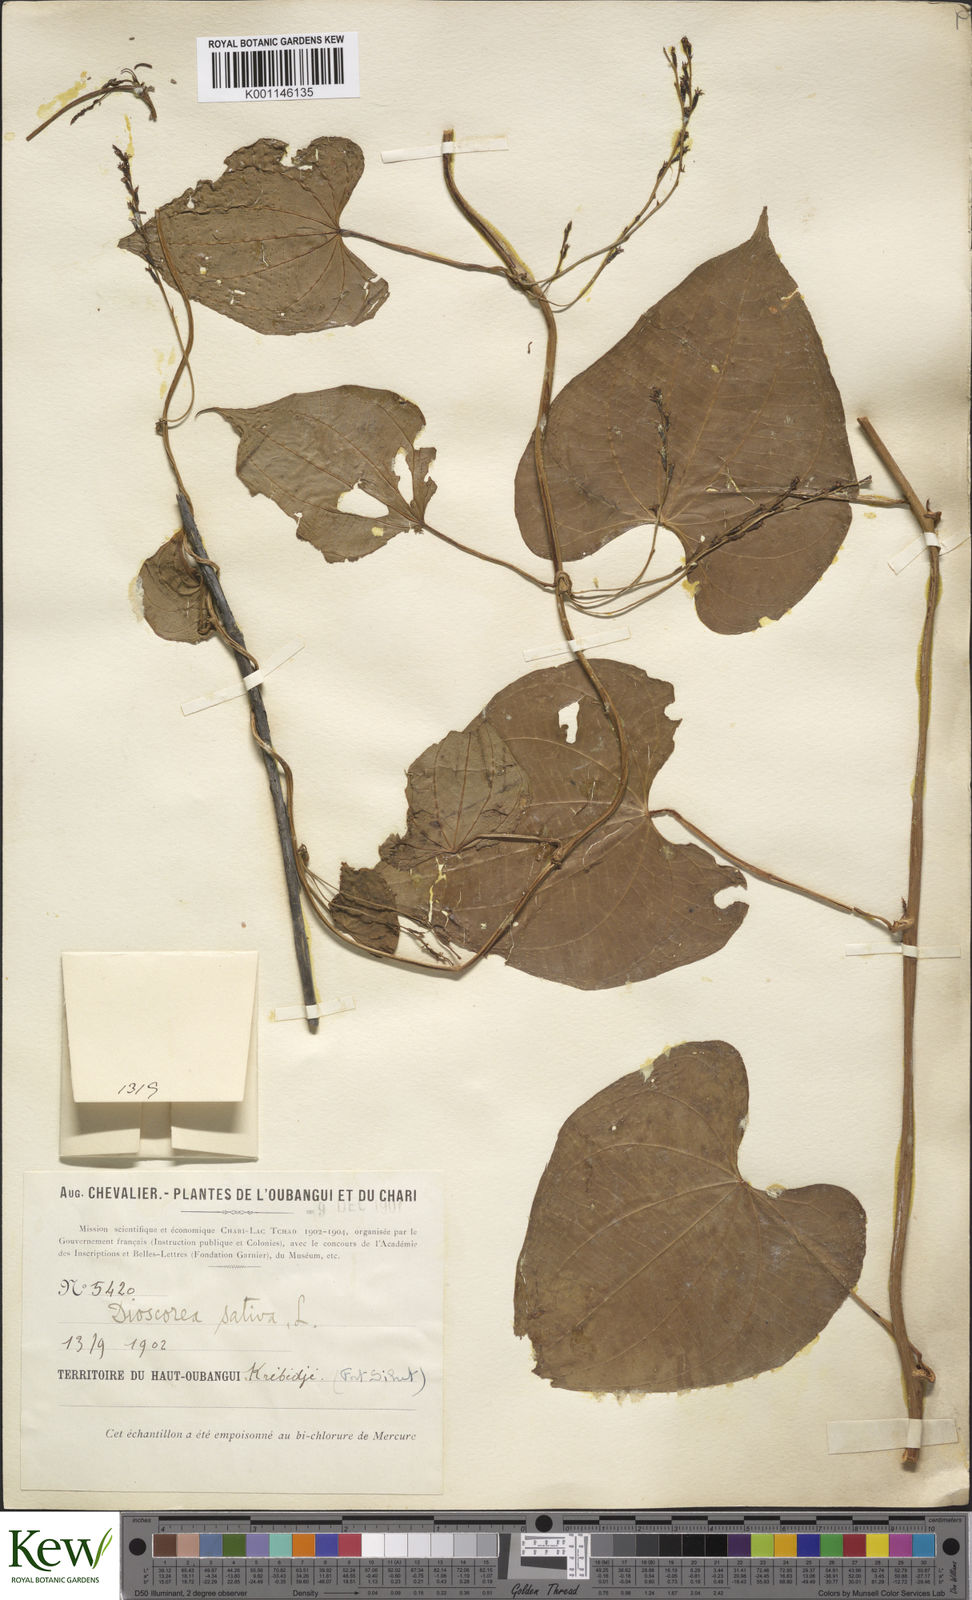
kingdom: Plantae
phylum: Tracheophyta
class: Liliopsida
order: Dioscoreales
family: Dioscoreaceae
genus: Dioscorea
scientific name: Dioscorea bulbifera
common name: Air yam
